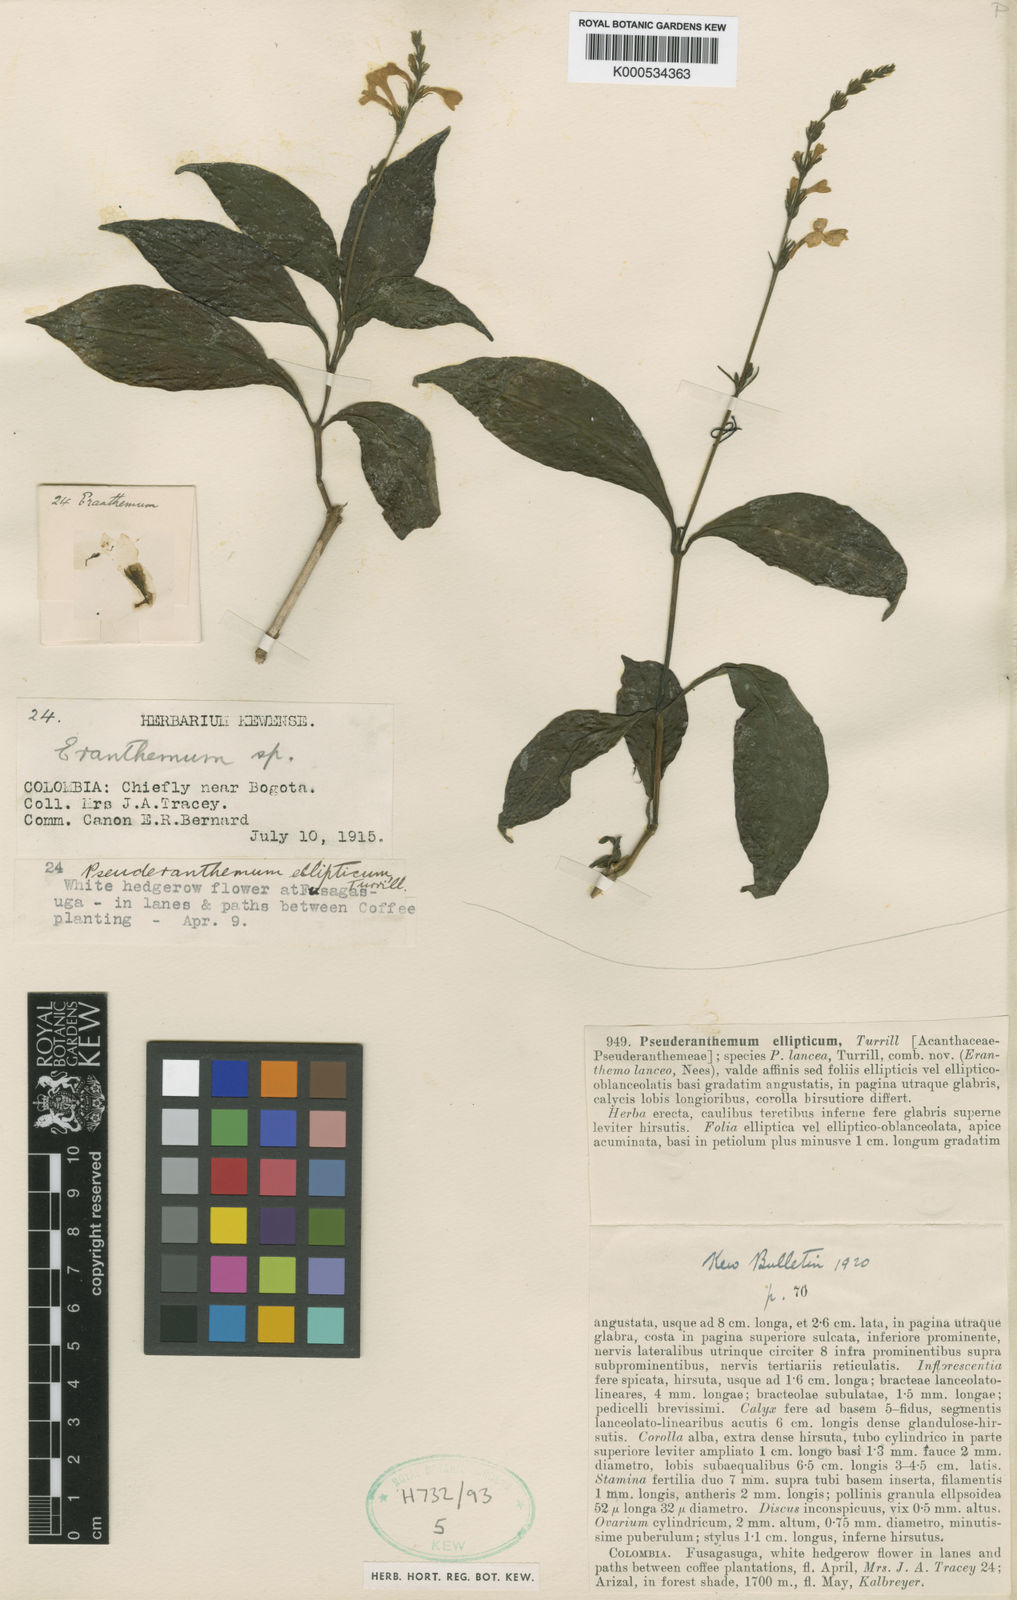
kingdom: Plantae
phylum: Tracheophyta
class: Magnoliopsida
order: Lamiales
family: Acanthaceae
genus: Pseuderanthemum
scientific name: Pseuderanthemum ellipticum
